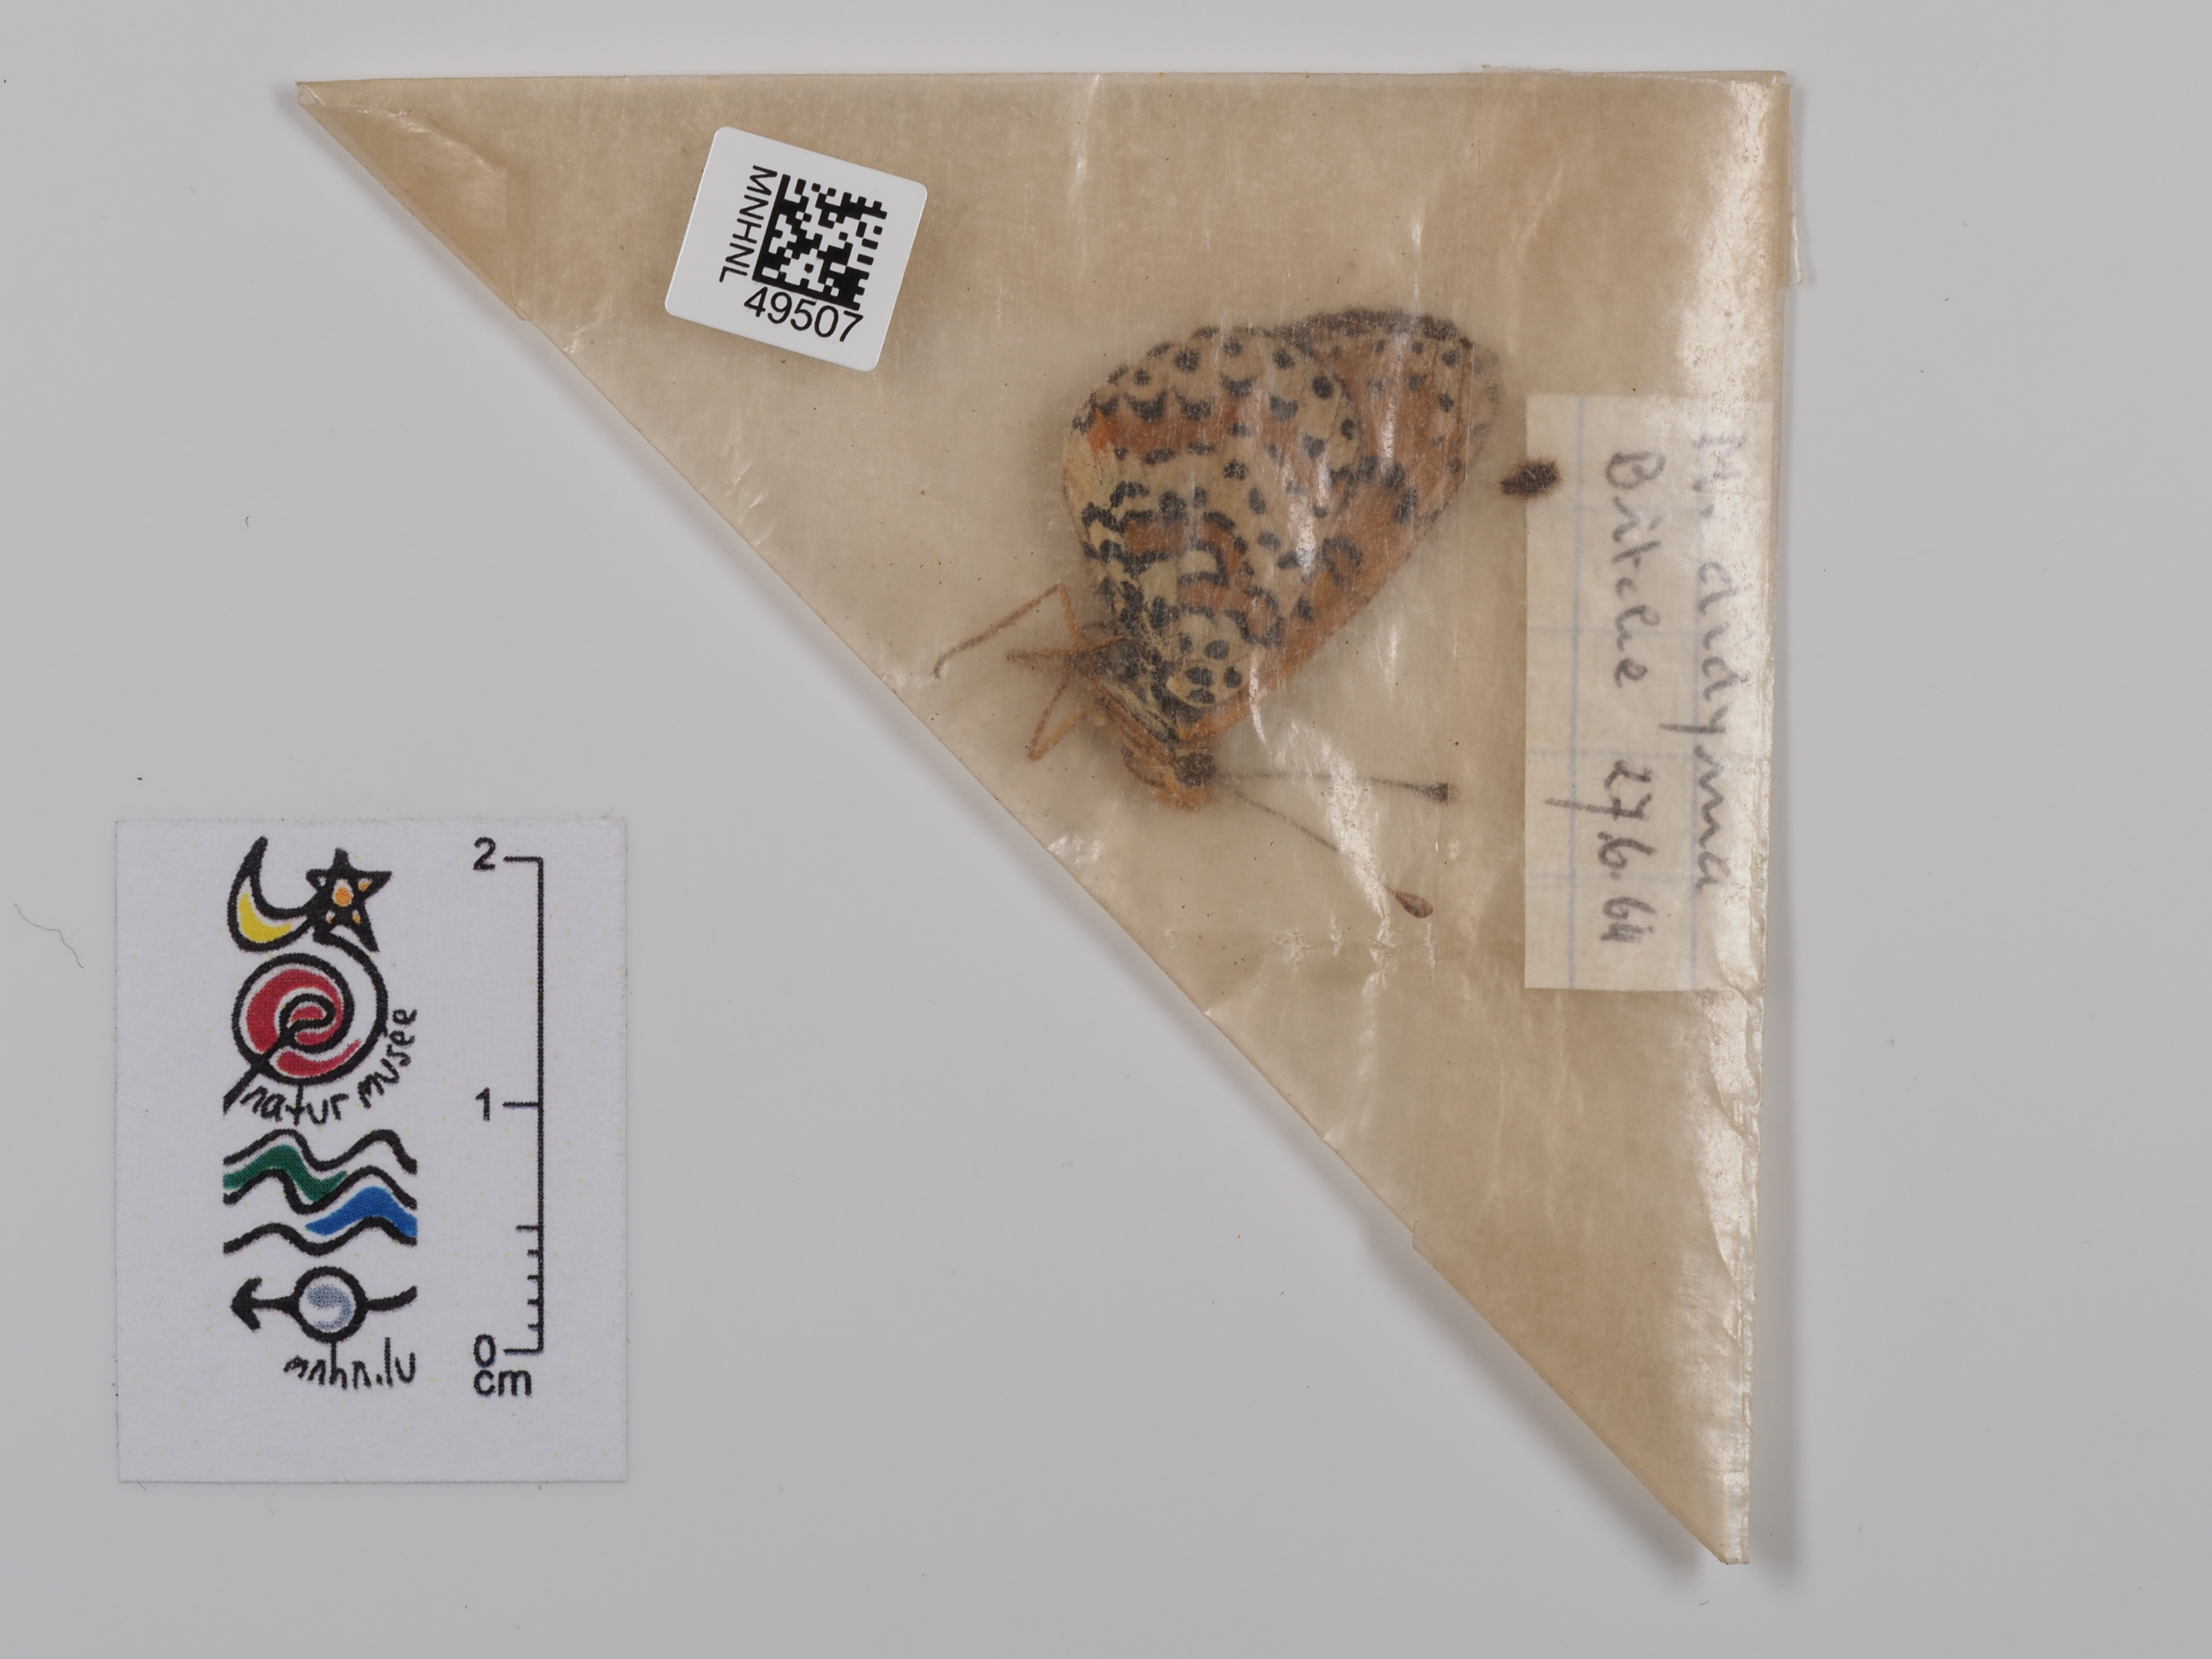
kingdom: Animalia
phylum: Arthropoda
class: Insecta
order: Lepidoptera
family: Nymphalidae
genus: Melitaea
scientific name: Melitaea didyma
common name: Spotted fritillary
